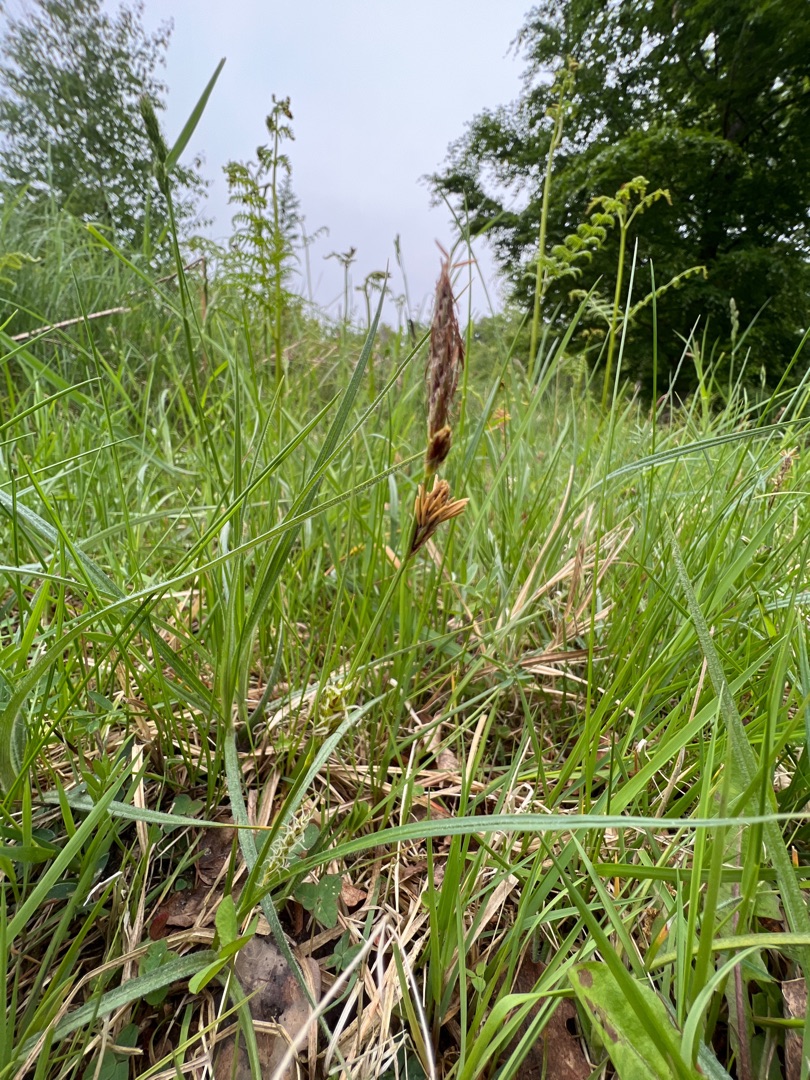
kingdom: Plantae
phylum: Tracheophyta
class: Liliopsida
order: Poales
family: Cyperaceae
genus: Carex
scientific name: Carex hirta
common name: Håret star
